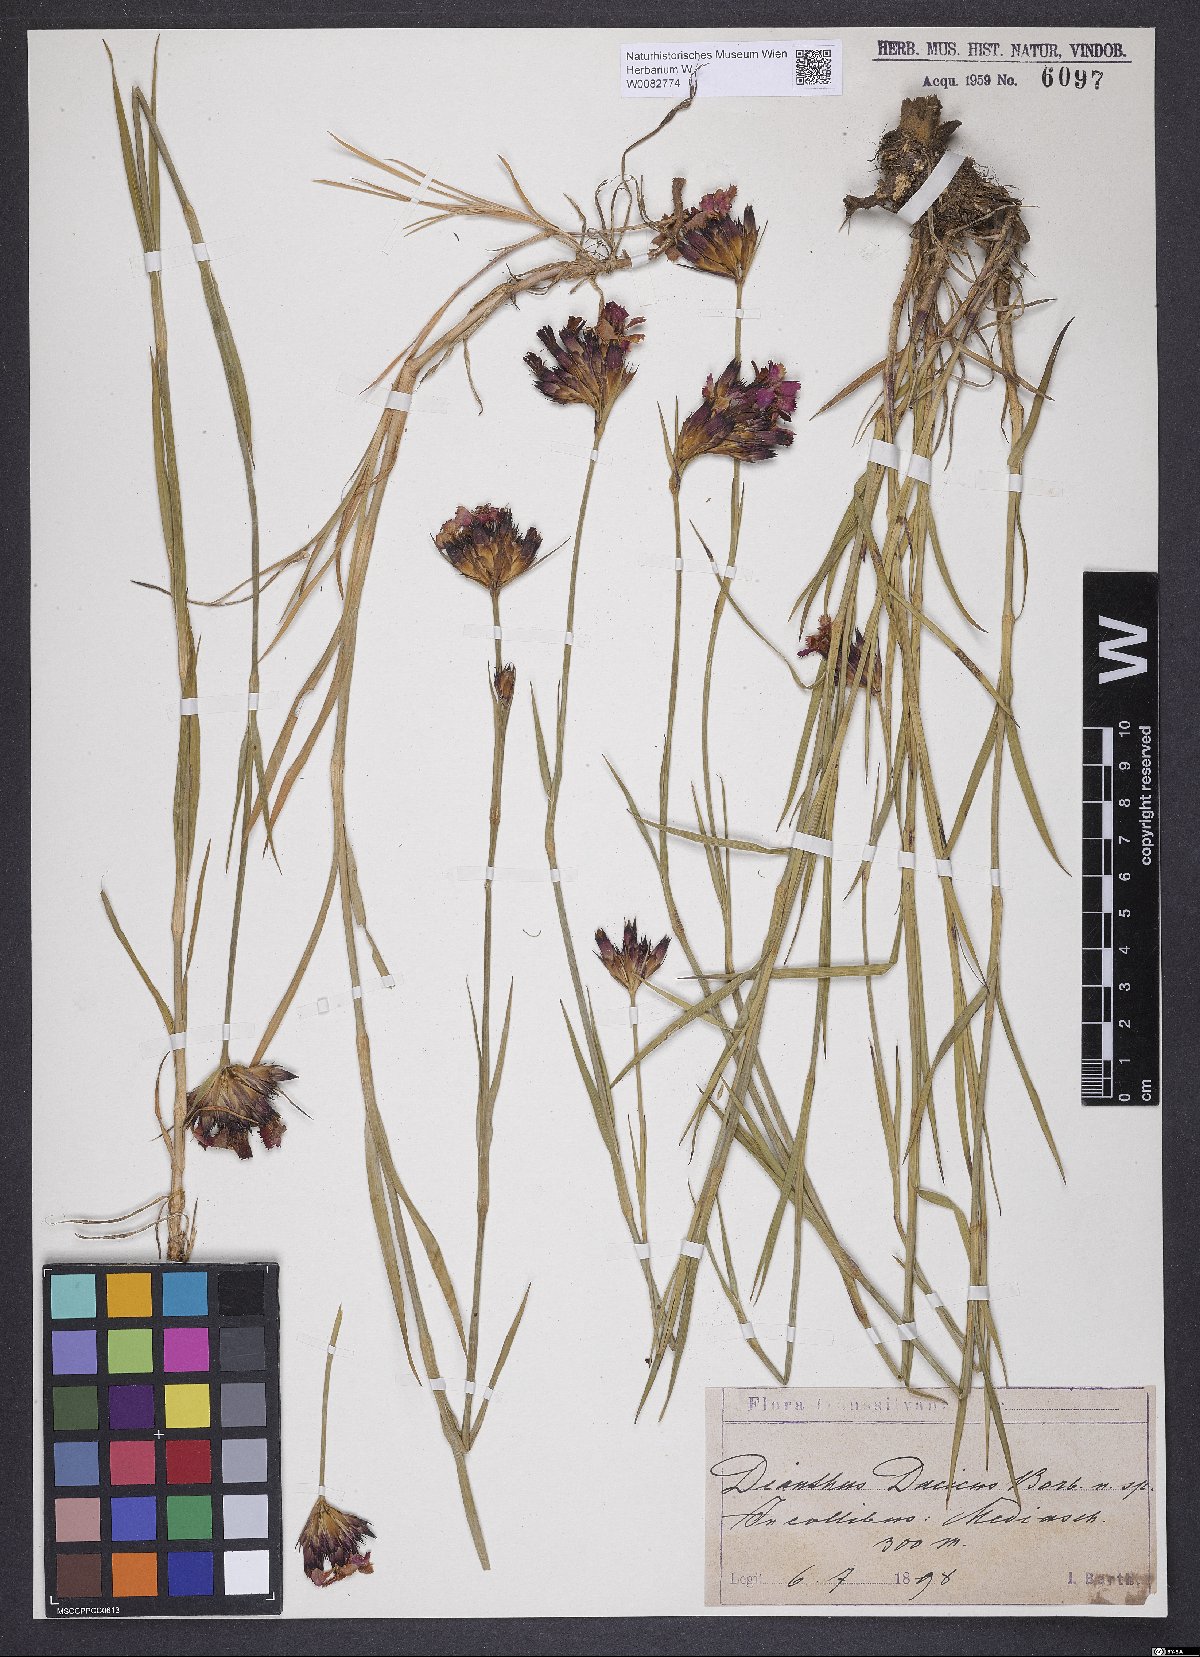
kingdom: Plantae
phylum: Tracheophyta
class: Magnoliopsida
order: Caryophyllales
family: Caryophyllaceae
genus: Dianthus
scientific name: Dianthus
